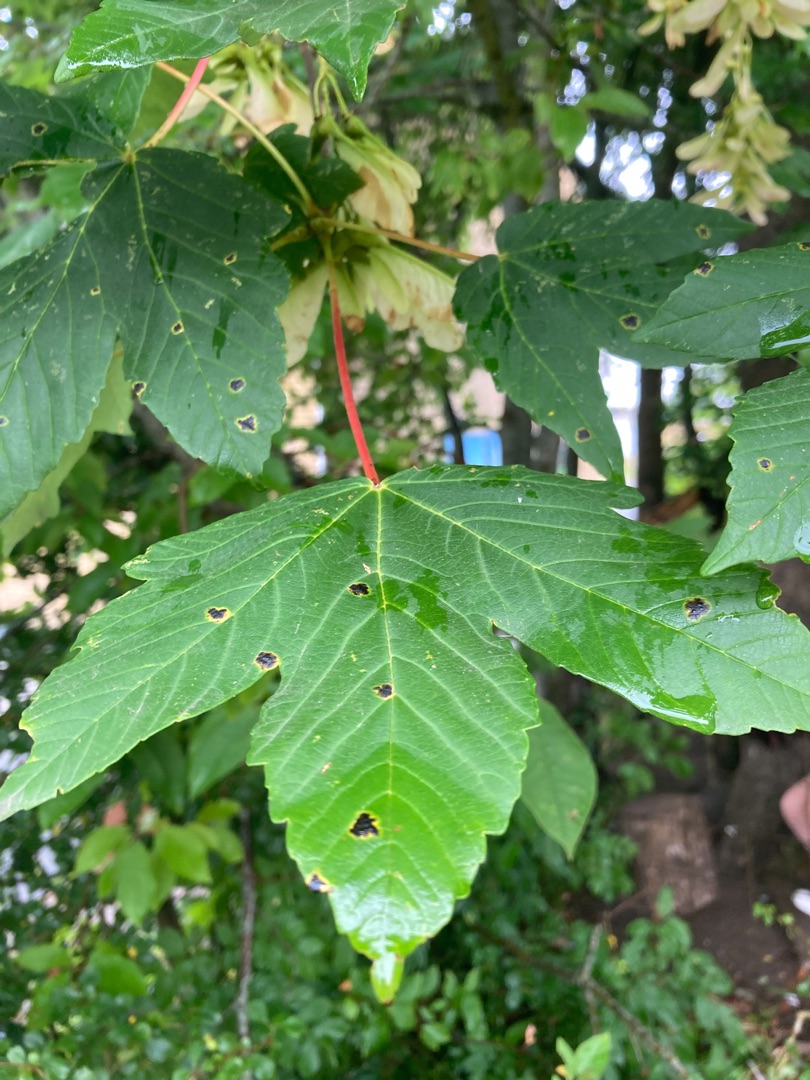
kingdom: Plantae
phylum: Tracheophyta
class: Magnoliopsida
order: Sapindales
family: Sapindaceae
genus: Acer
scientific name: Acer pseudoplatanus
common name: Ahorn
